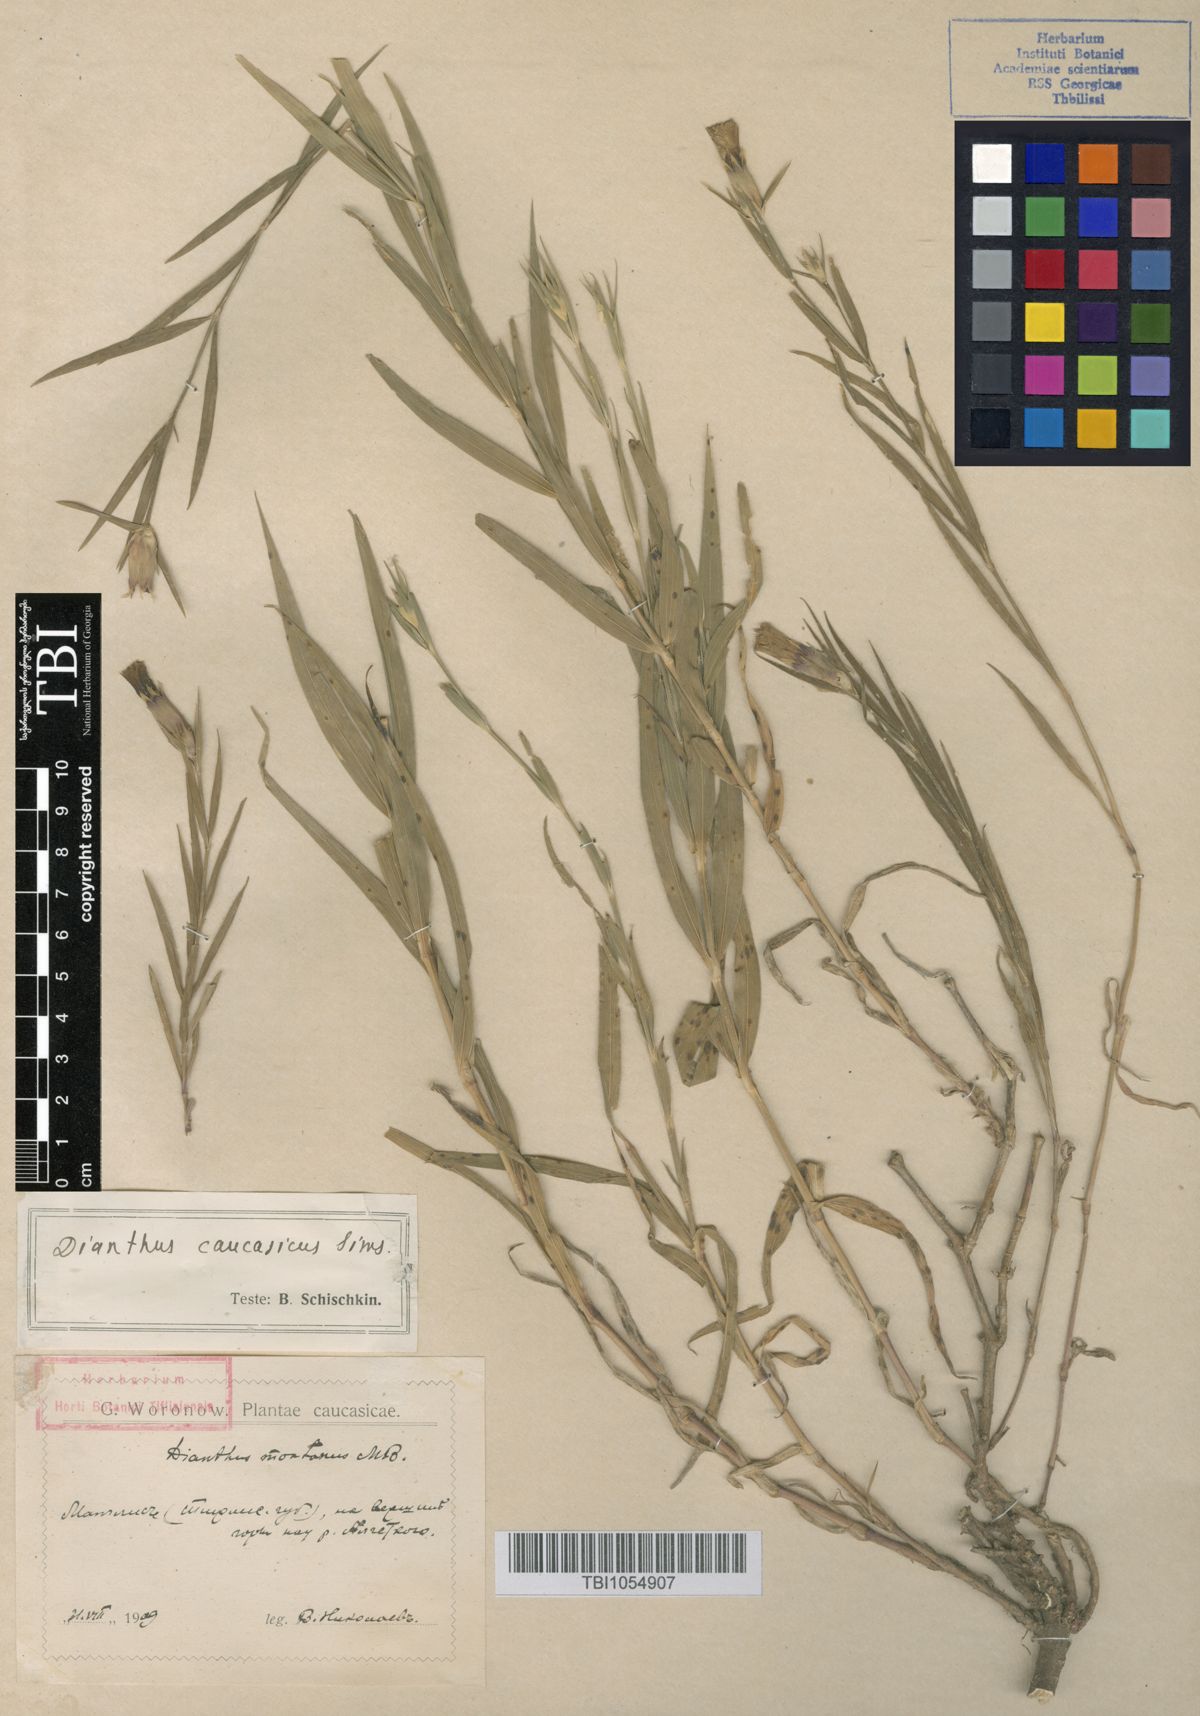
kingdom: Plantae
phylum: Tracheophyta
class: Magnoliopsida
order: Caryophyllales
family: Caryophyllaceae
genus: Dianthus
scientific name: Dianthus caucaseus
